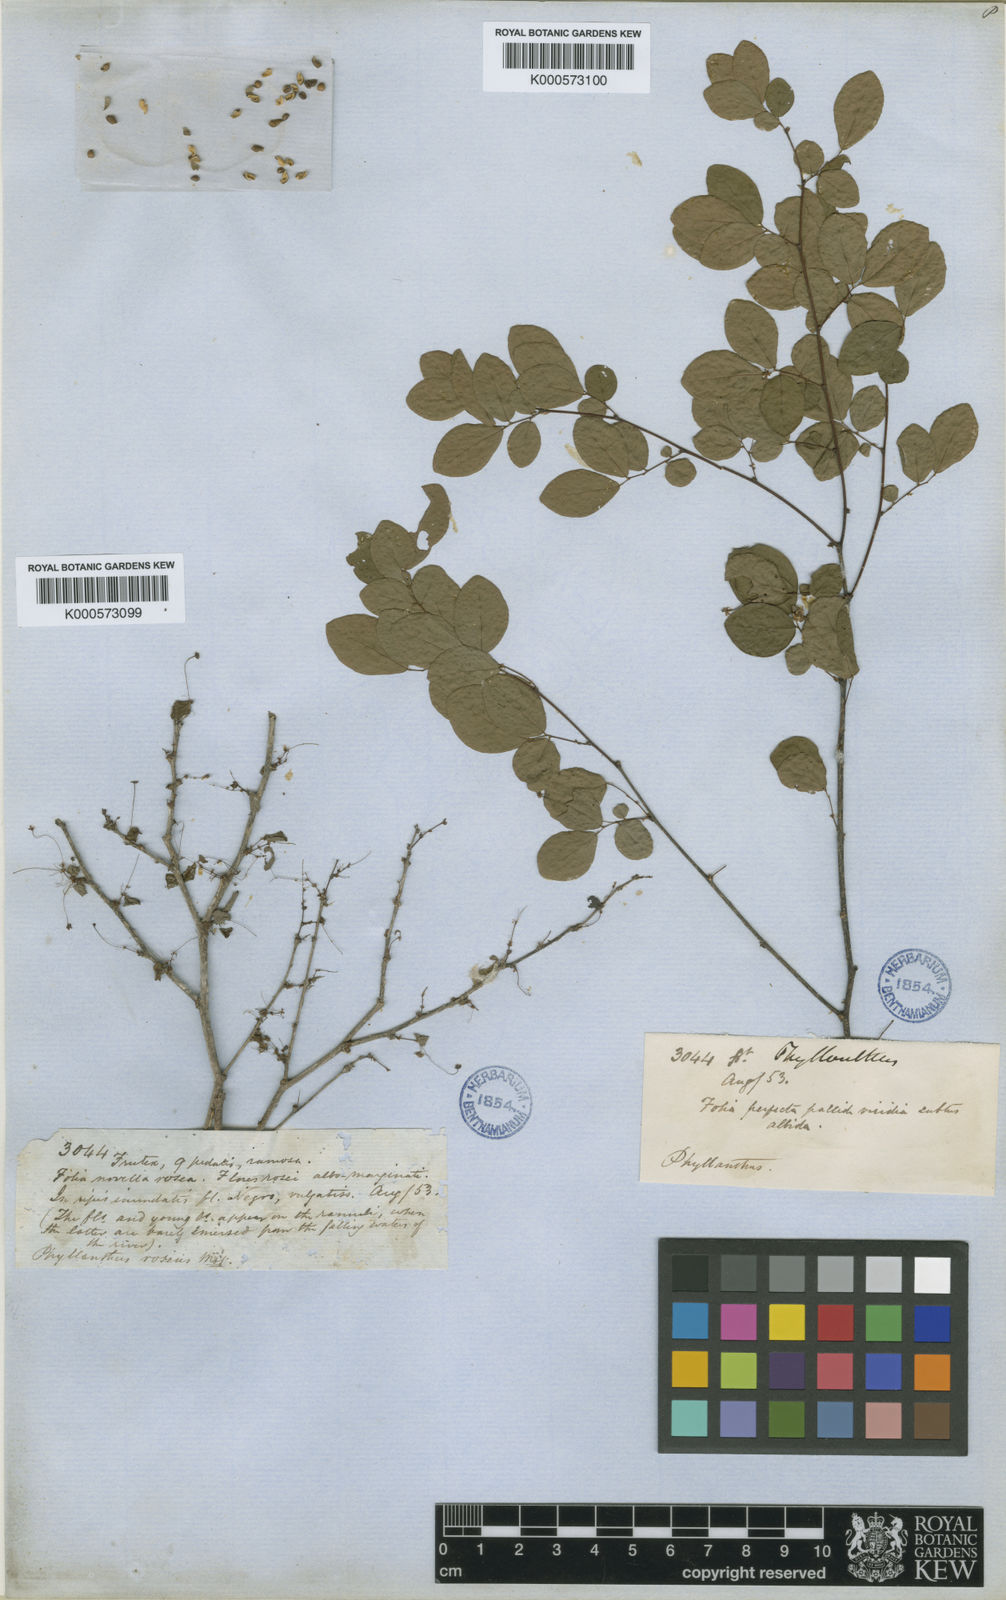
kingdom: Plantae
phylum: Tracheophyta
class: Magnoliopsida
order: Malpighiales
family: Phyllanthaceae
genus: Phyllanthus
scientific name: Phyllanthus rupestris
